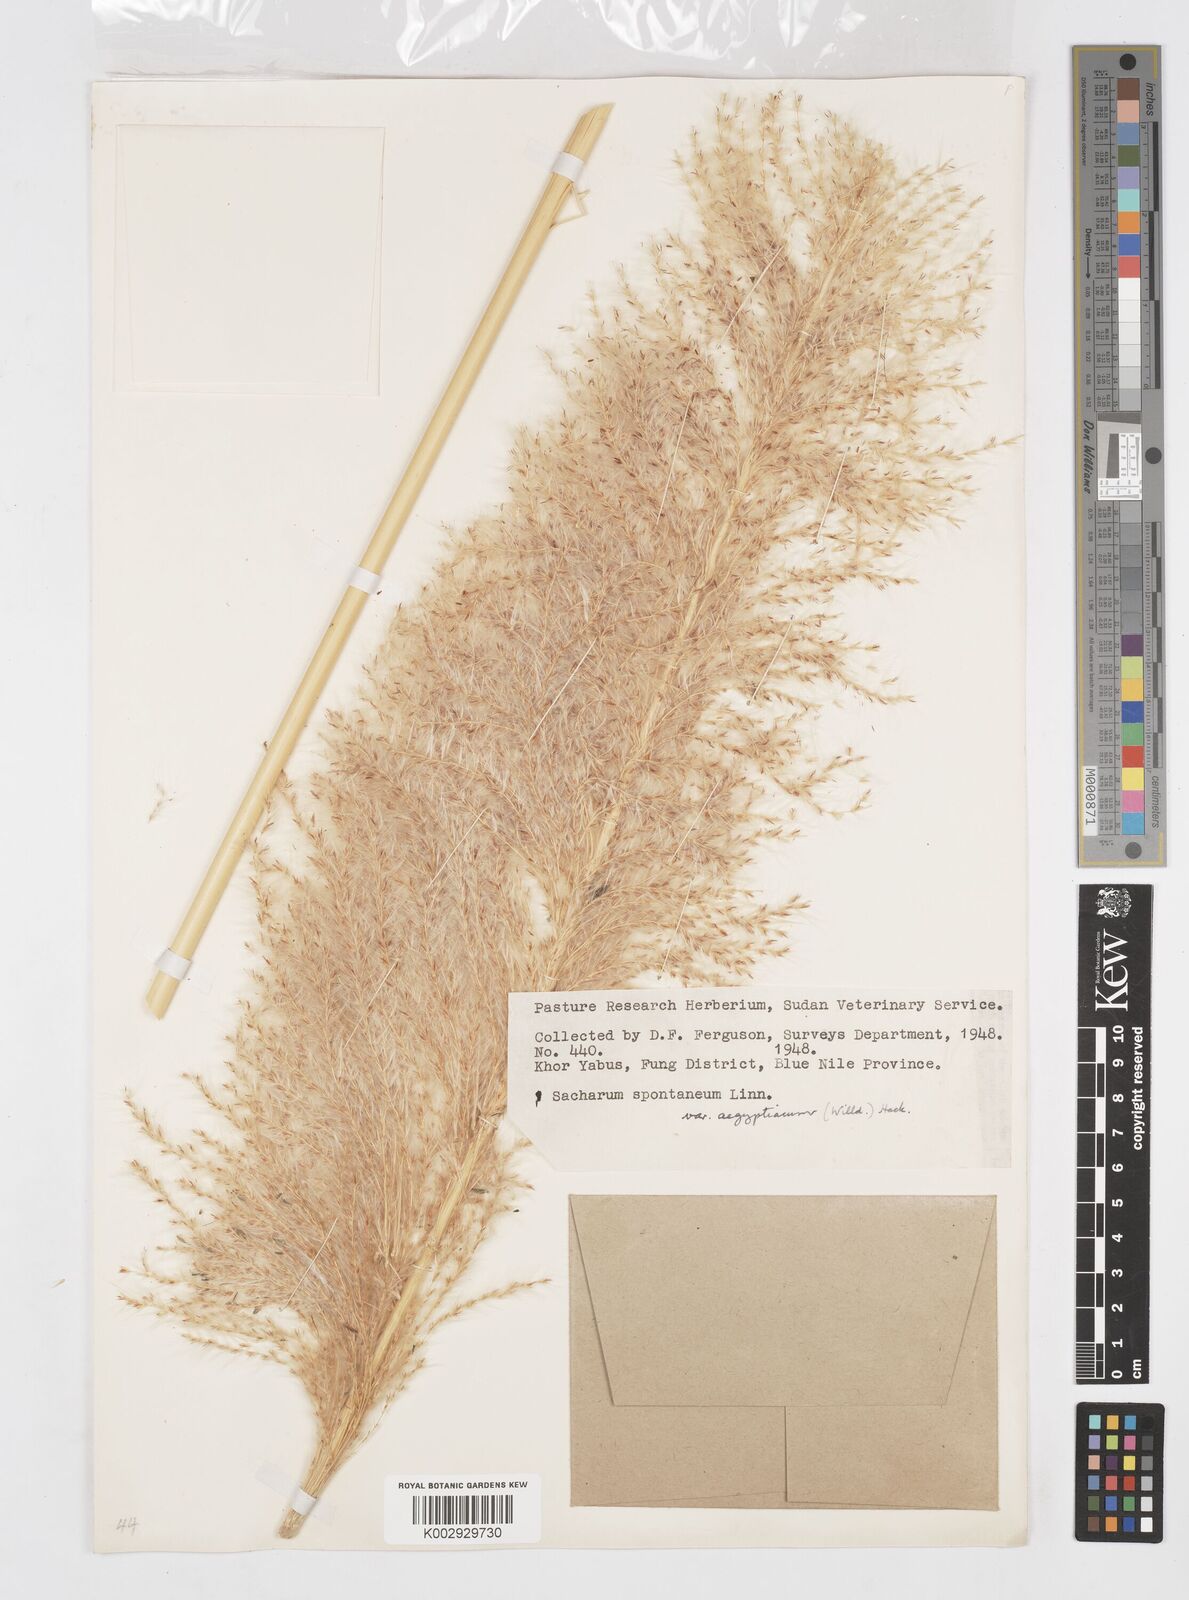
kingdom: Plantae
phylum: Tracheophyta
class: Liliopsida
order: Poales
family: Poaceae
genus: Saccharum
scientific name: Saccharum spontaneum
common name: Wild sugarcane
